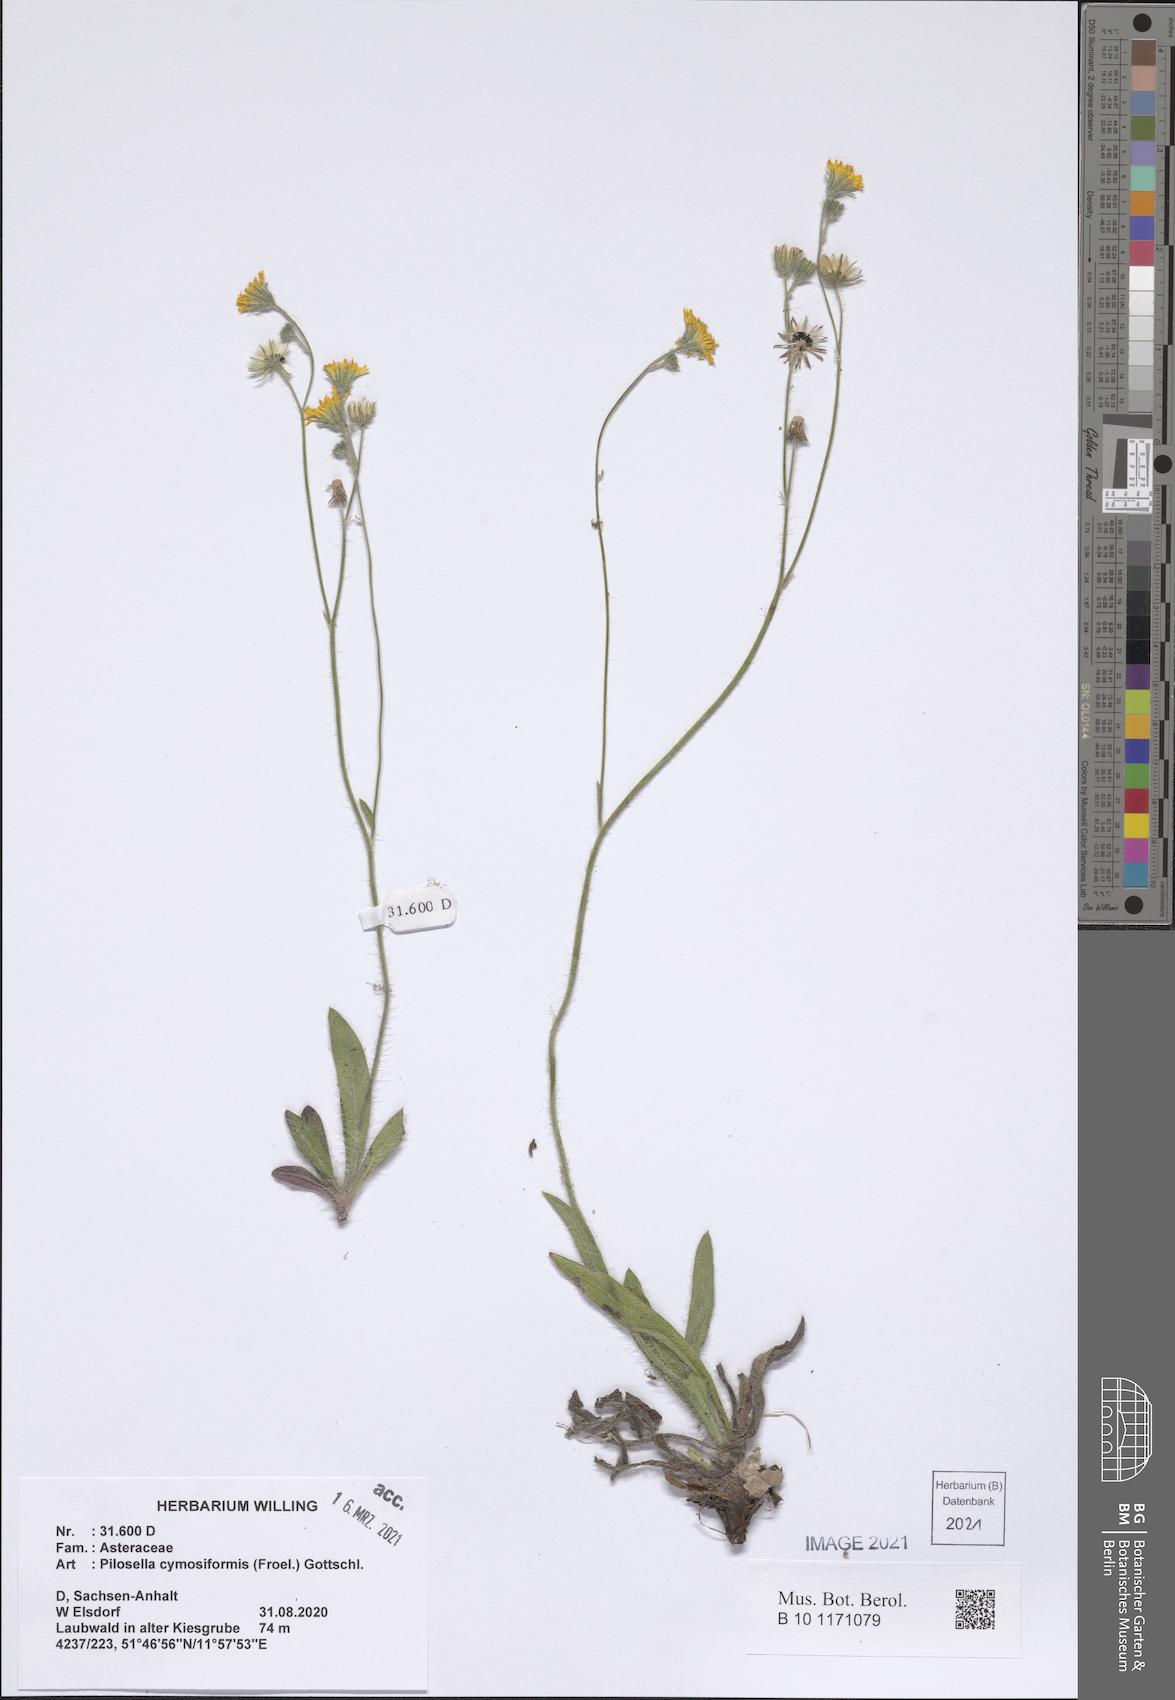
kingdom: Plantae
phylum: Tracheophyta
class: Magnoliopsida
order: Asterales
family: Asteraceae
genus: Pilosella
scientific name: Pilosella cymosiformis
